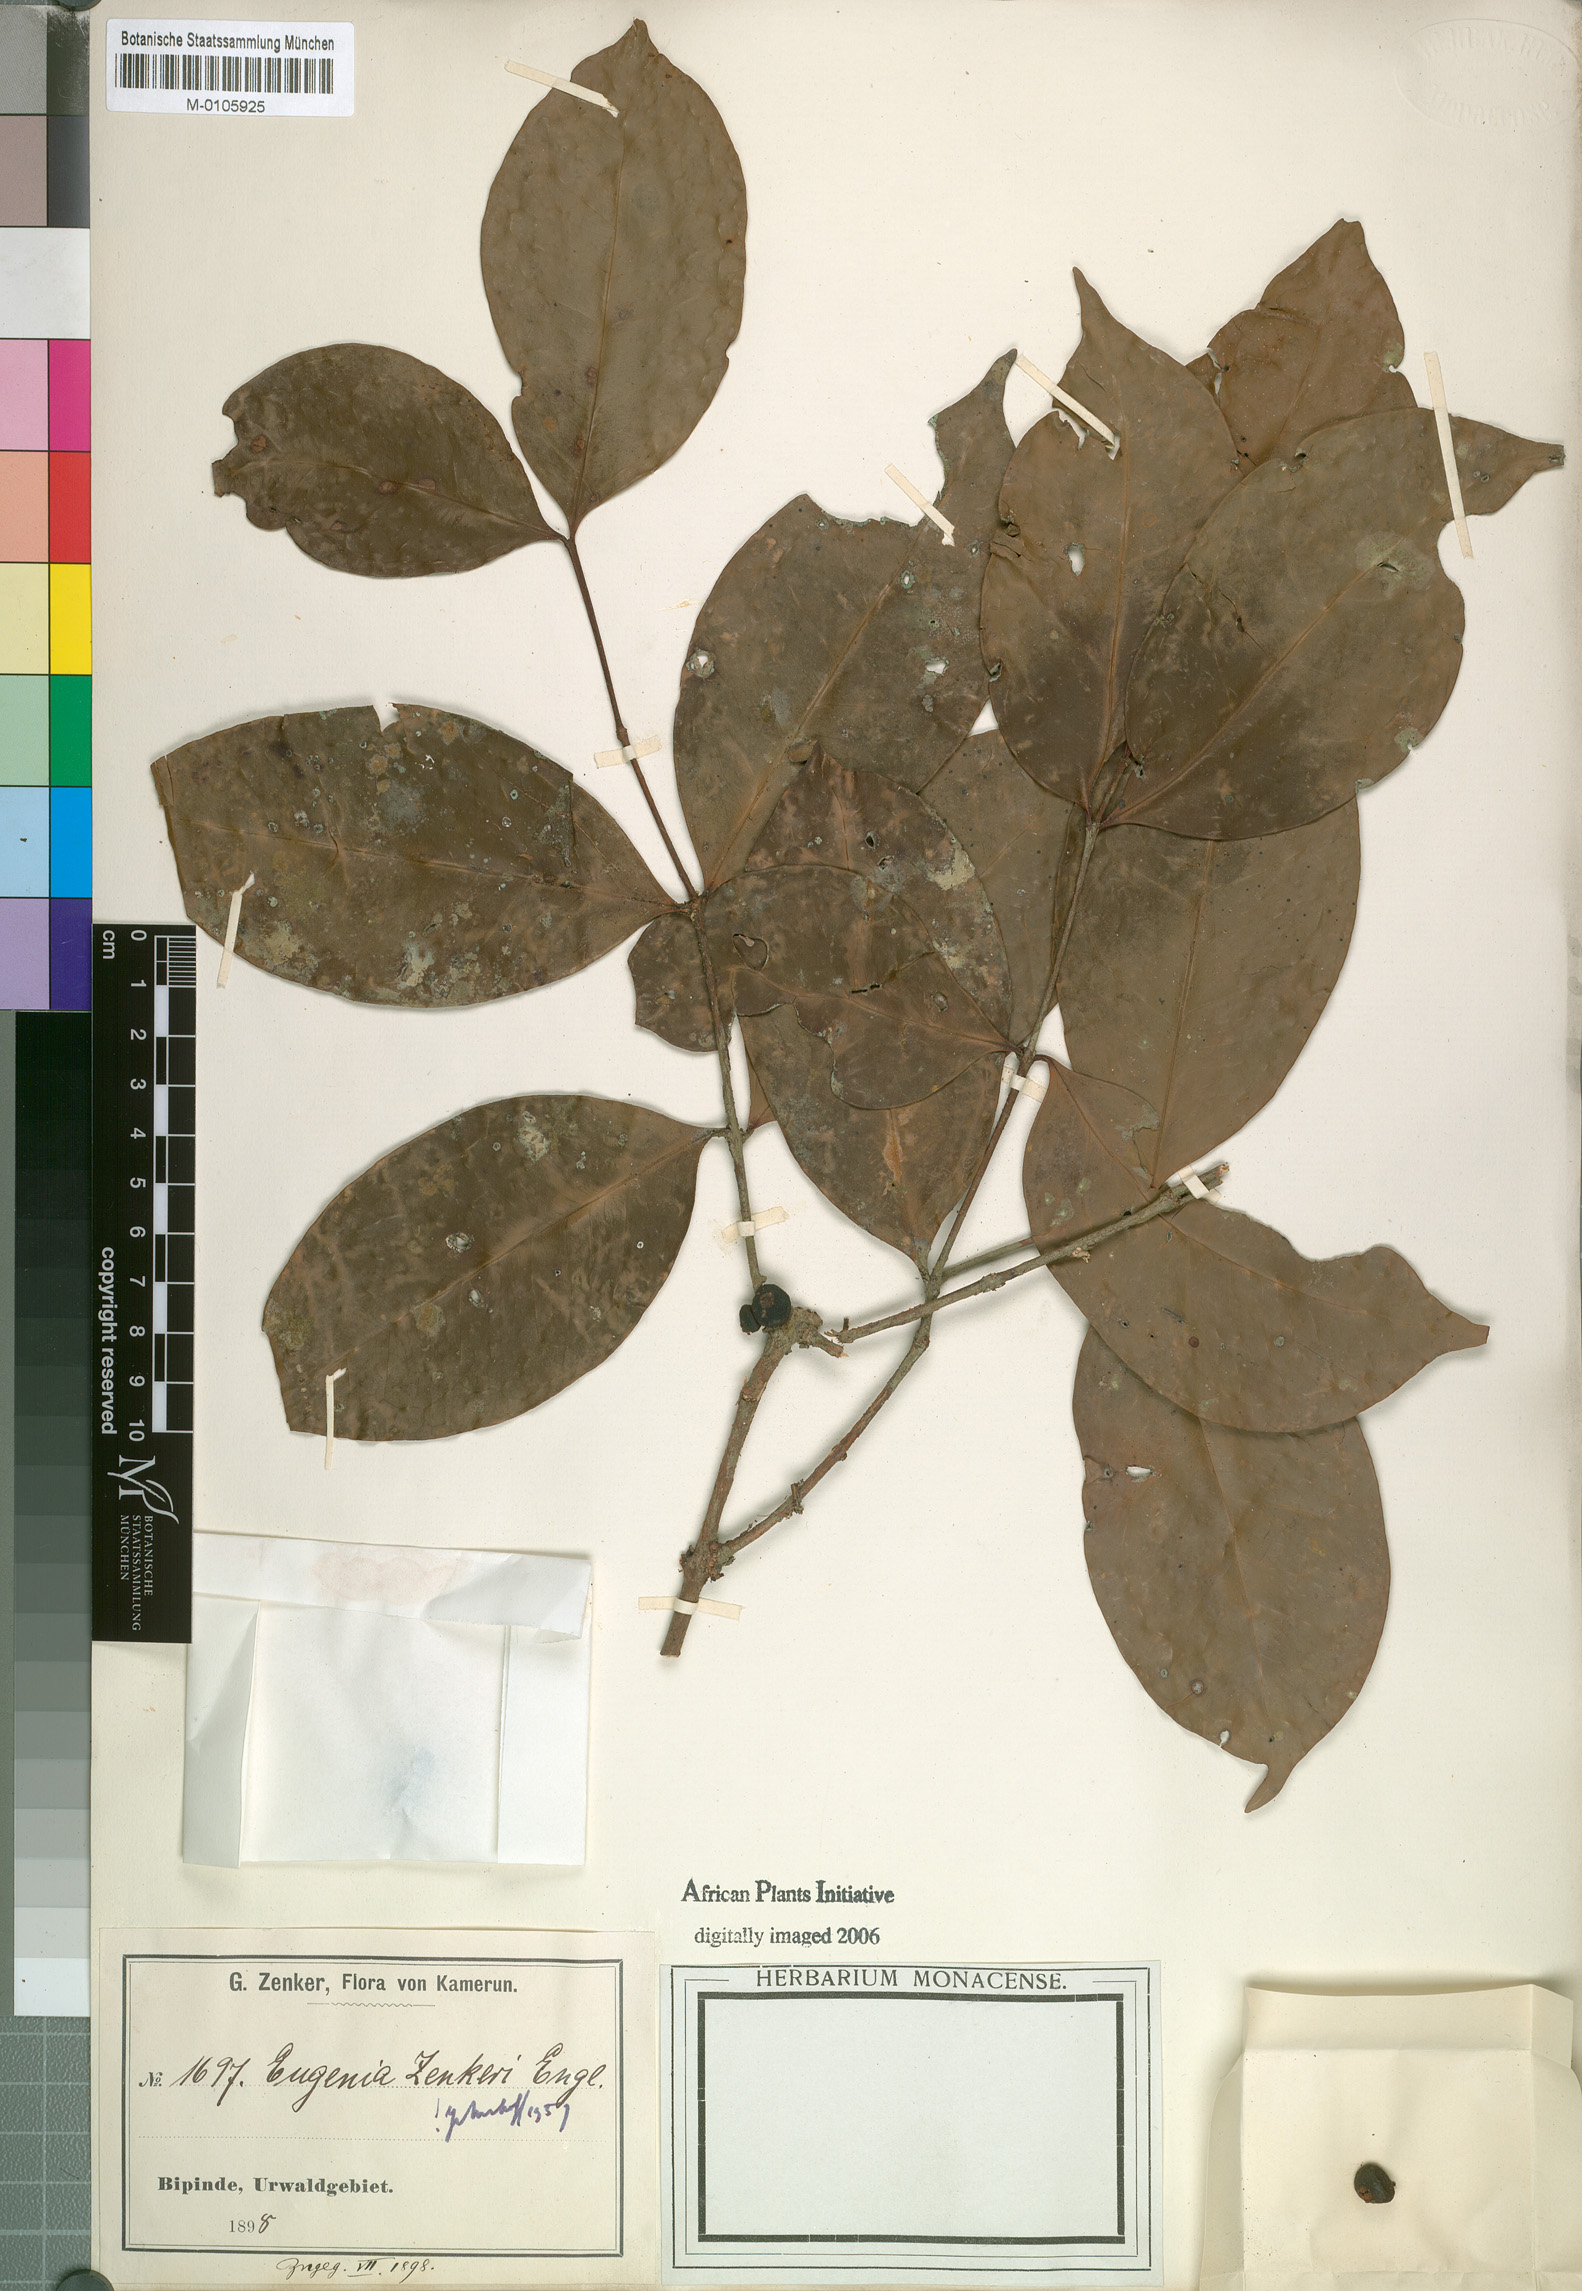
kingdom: Plantae
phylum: Tracheophyta
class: Magnoliopsida
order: Myrtales
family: Myrtaceae
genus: Eugenia
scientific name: Eugenia zenkeri
